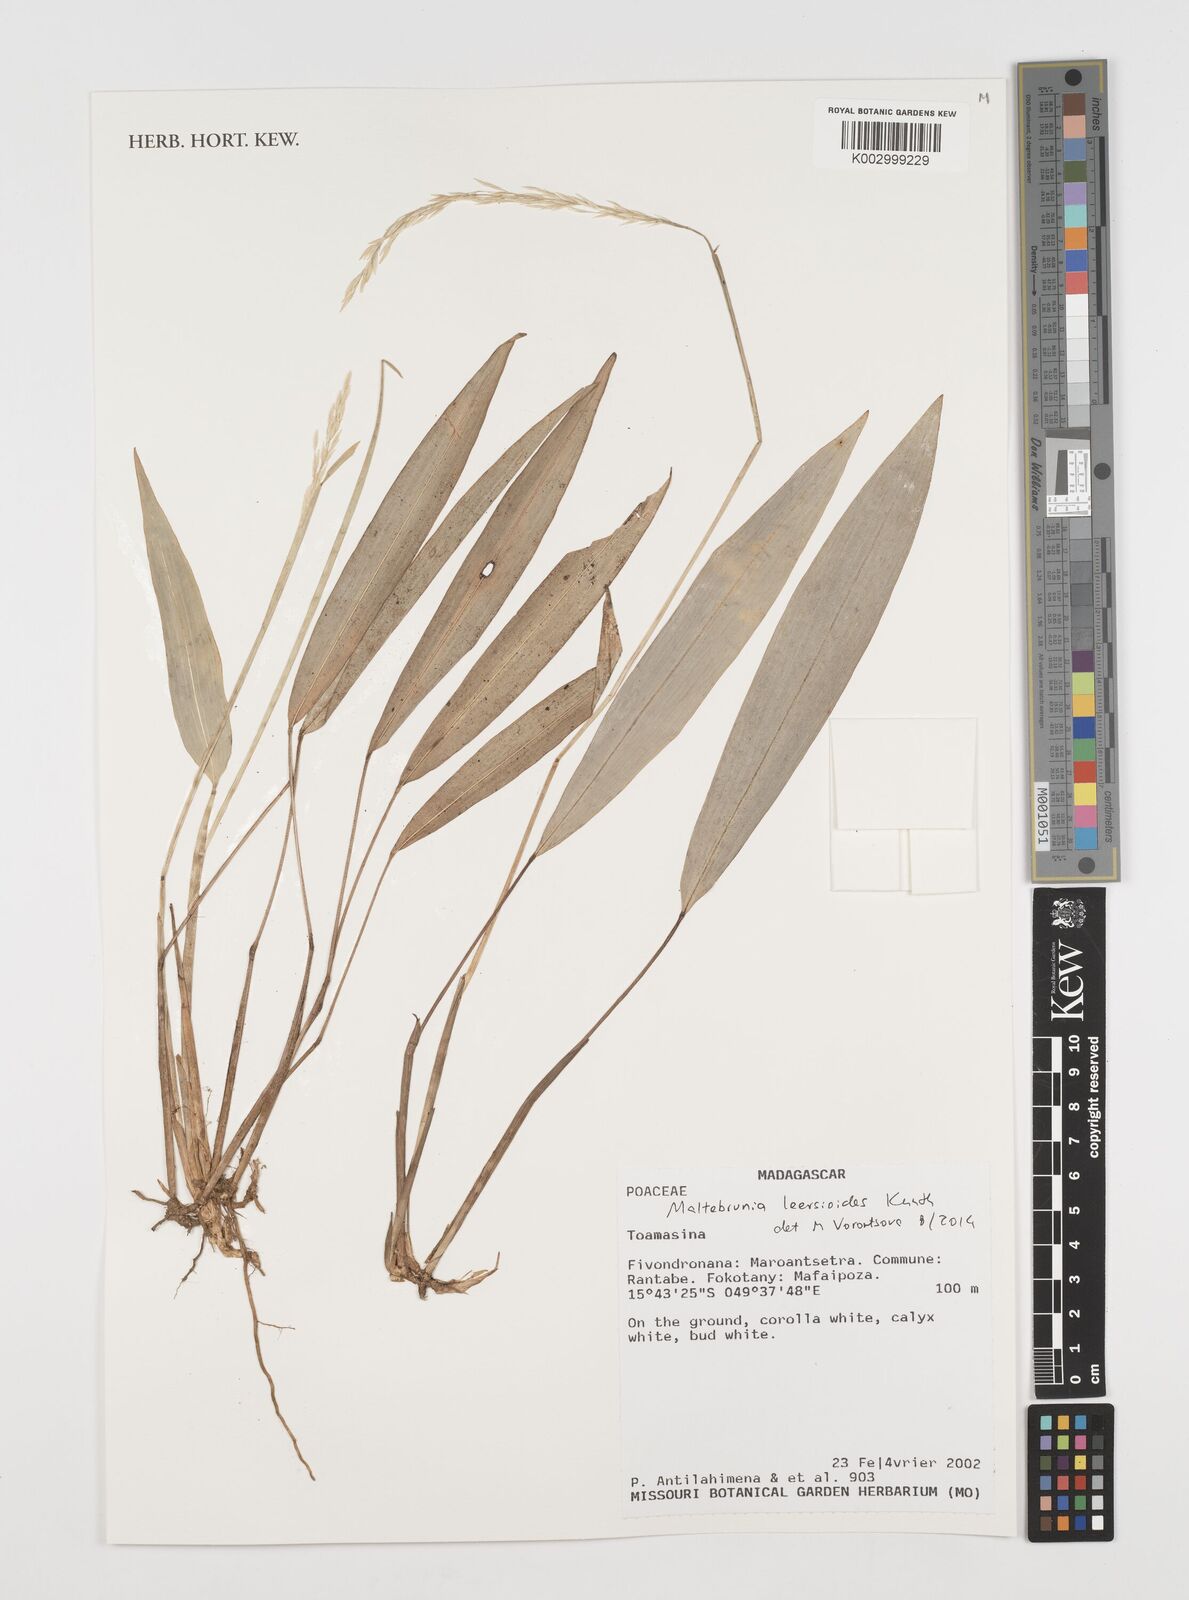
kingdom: Plantae
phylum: Tracheophyta
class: Liliopsida
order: Poales
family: Poaceae
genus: Maltebrunia
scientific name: Maltebrunia leersioides
